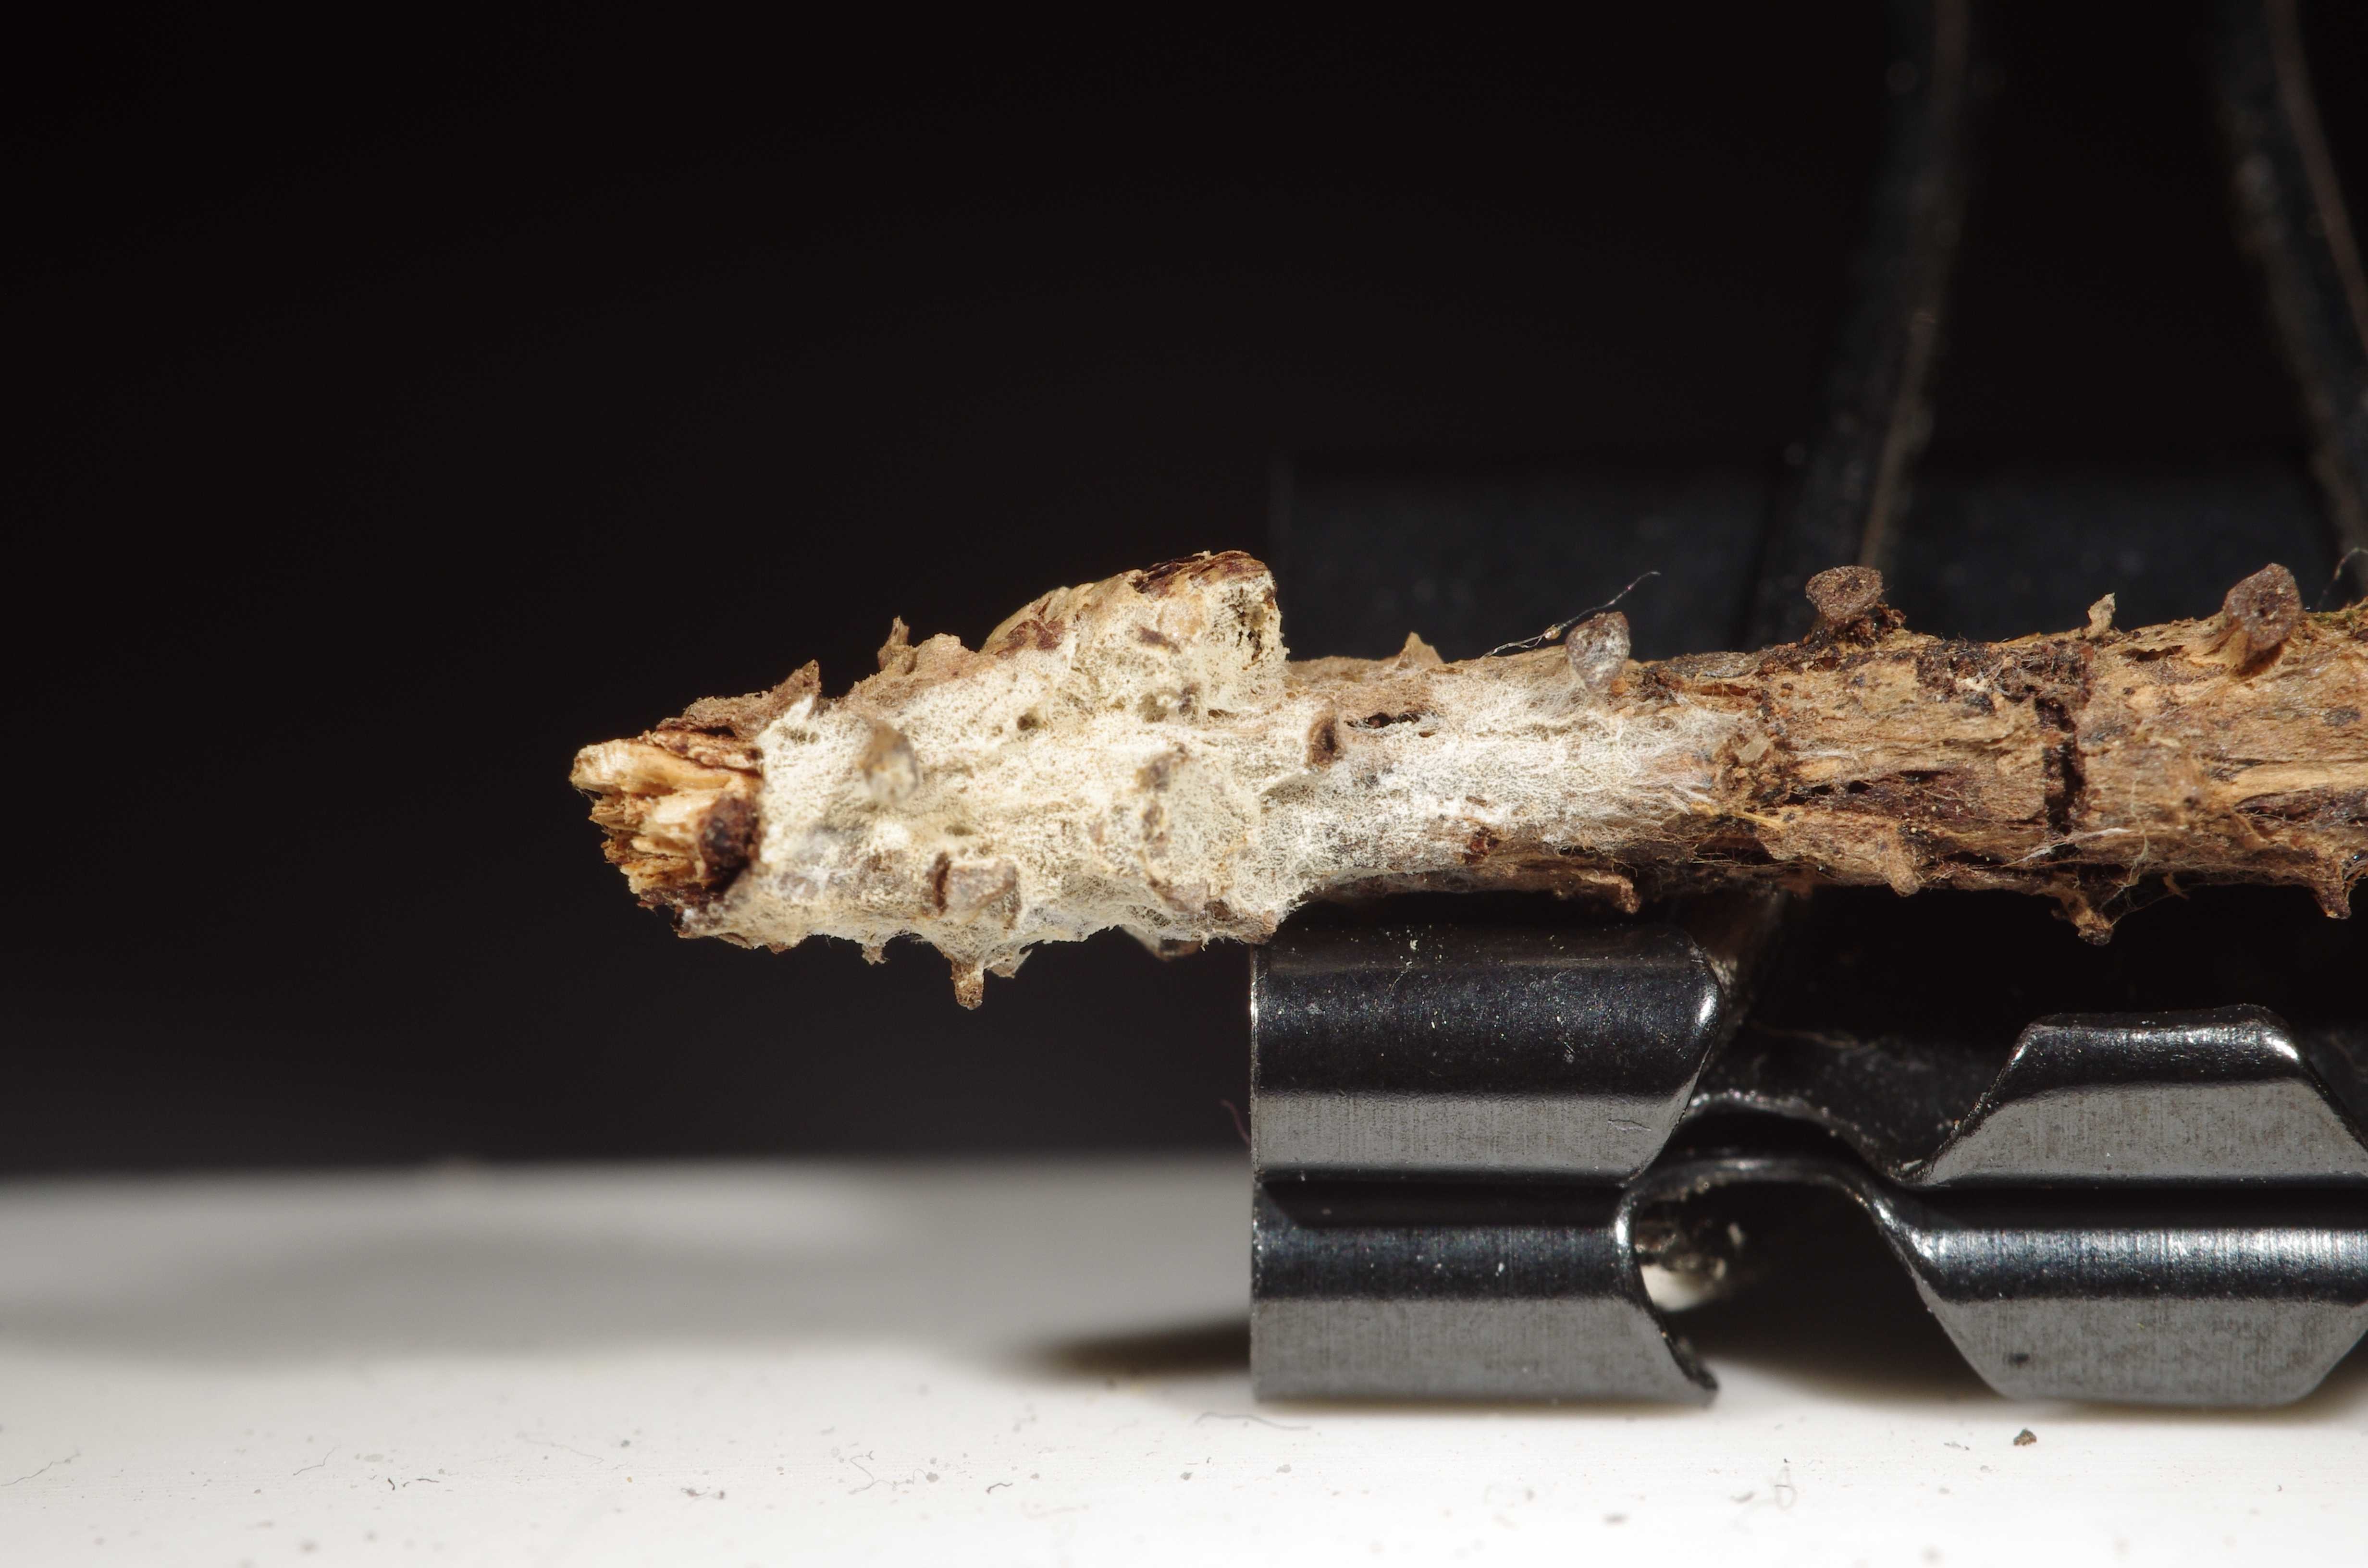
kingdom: Fungi
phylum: Basidiomycota
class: Agaricomycetes
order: Trechisporales
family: Sistotremataceae
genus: Trechispora
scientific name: Trechispora stellulata
